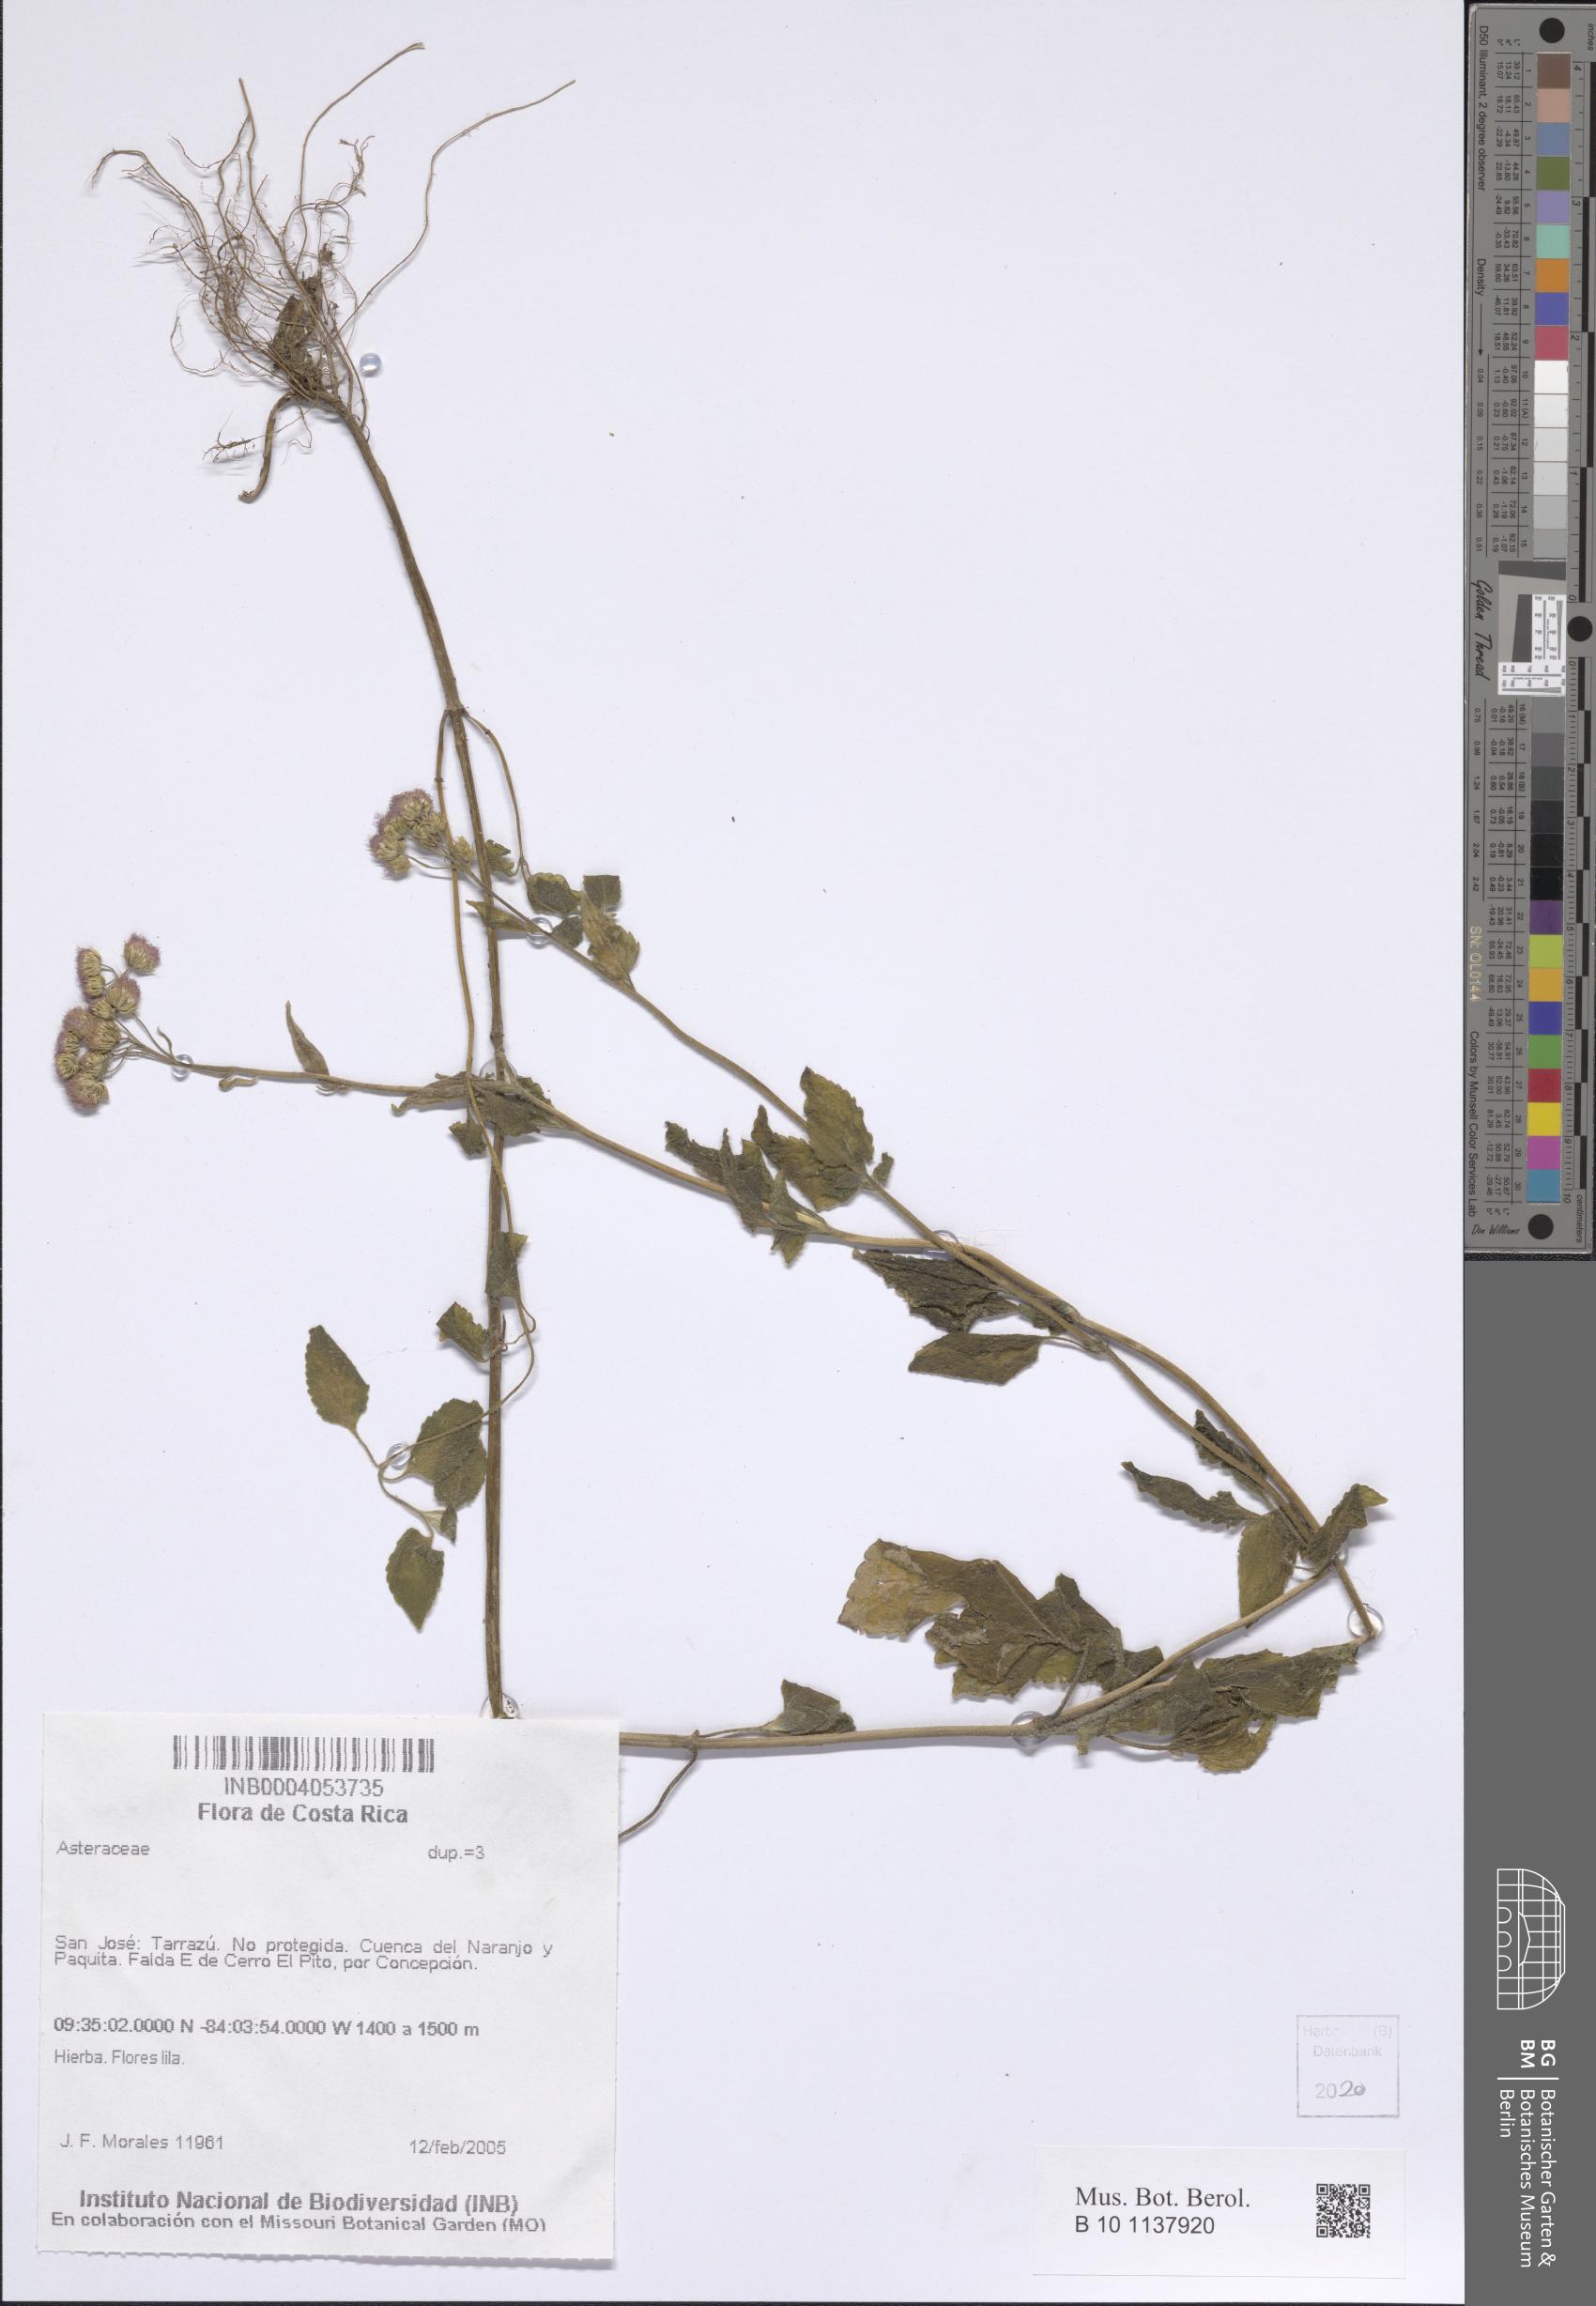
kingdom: Plantae
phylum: Tracheophyta
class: Magnoliopsida
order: Asterales
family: Asteraceae
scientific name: Asteraceae
